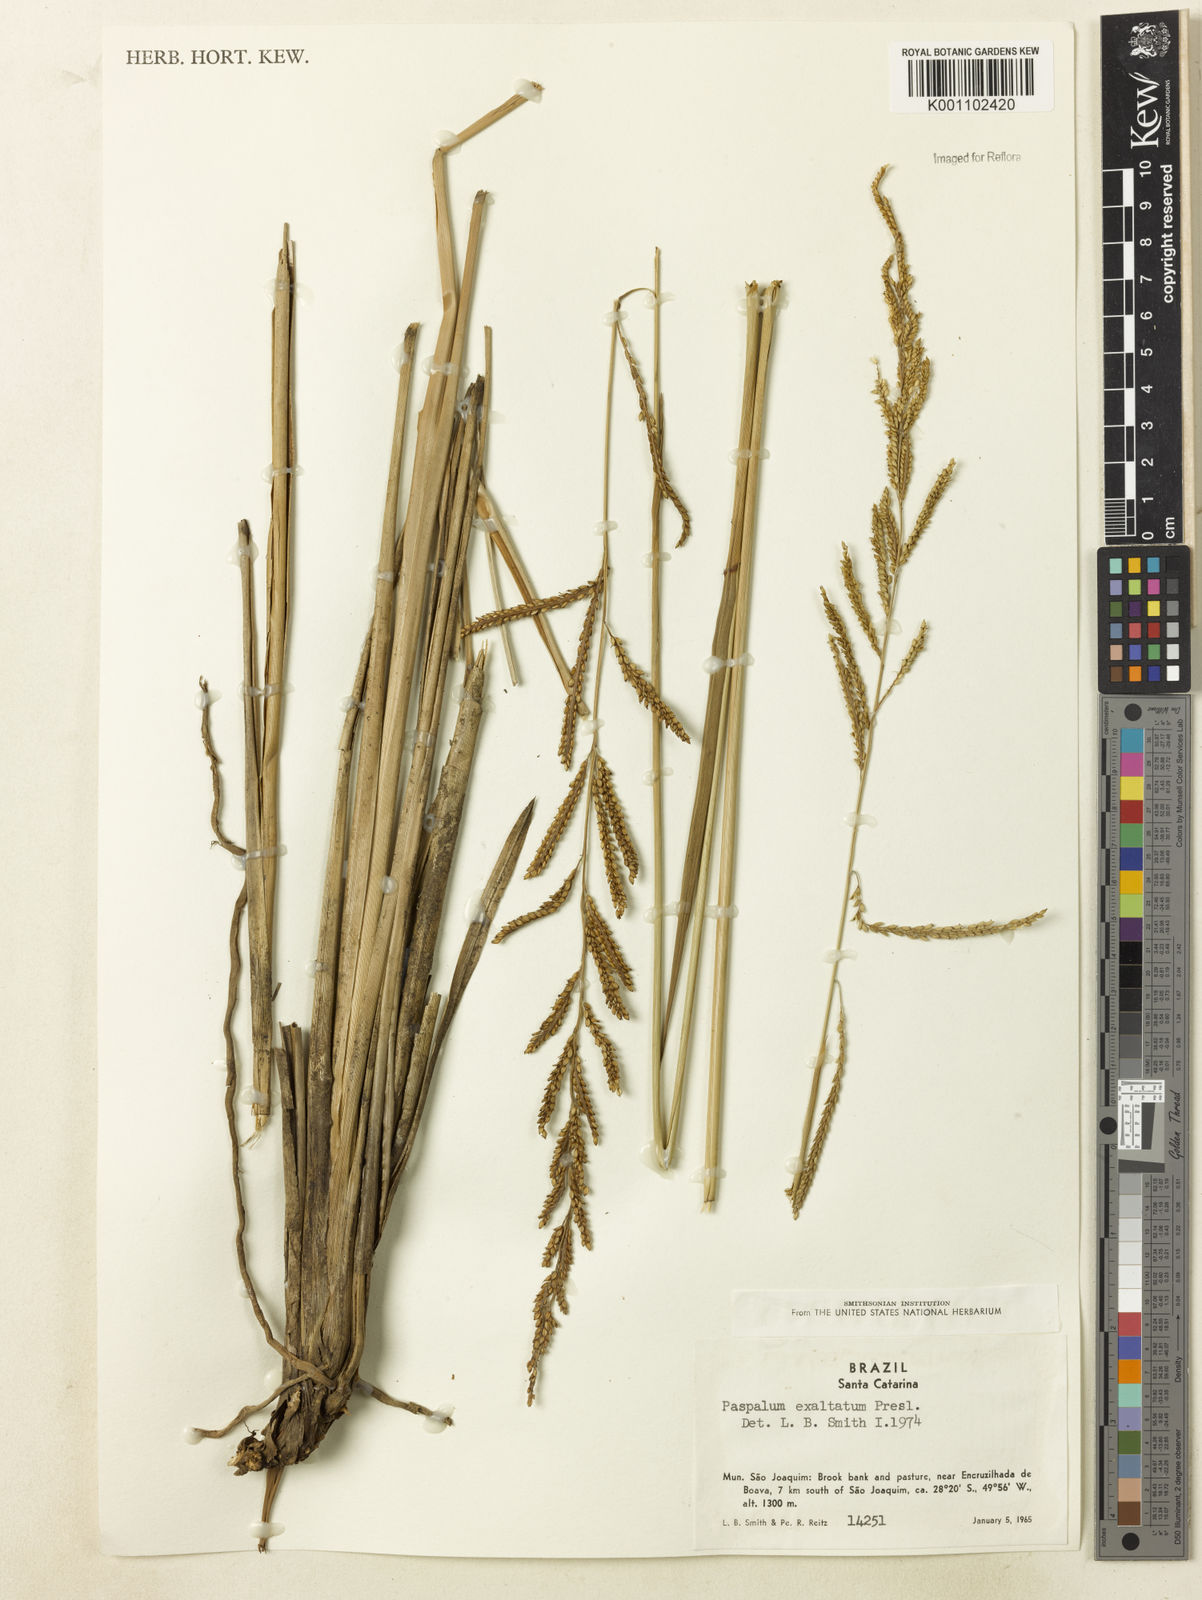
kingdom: Plantae
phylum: Tracheophyta
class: Liliopsida
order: Poales
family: Poaceae
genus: Paspalum
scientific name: Paspalum exaltatum
